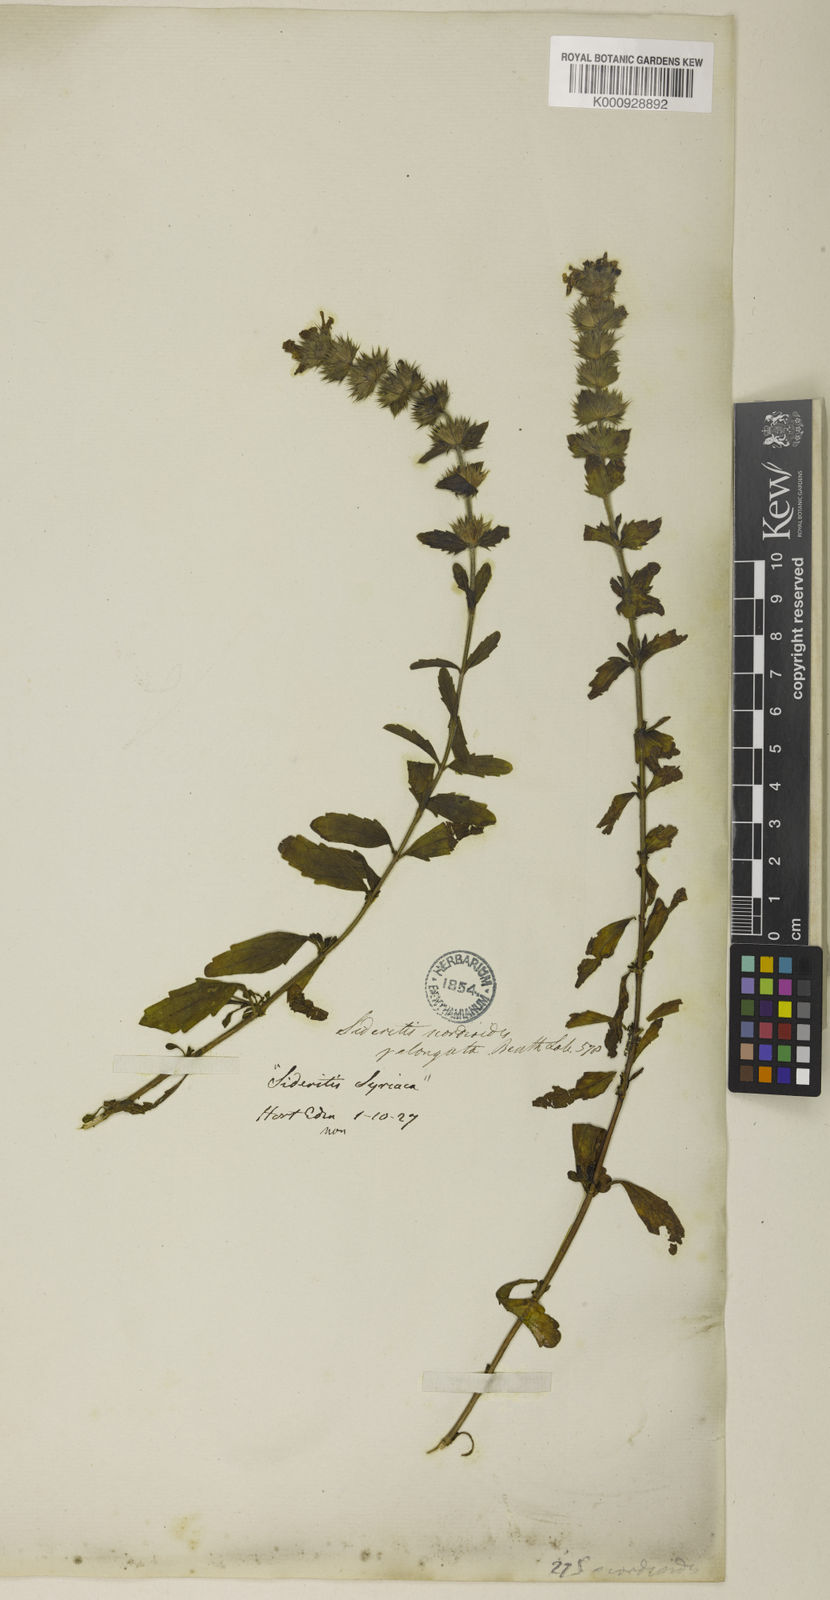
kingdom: Plantae
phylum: Tracheophyta
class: Magnoliopsida
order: Lamiales
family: Lamiaceae
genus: Sideritis
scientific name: Sideritis hyssopifolia
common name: Mountain tea
